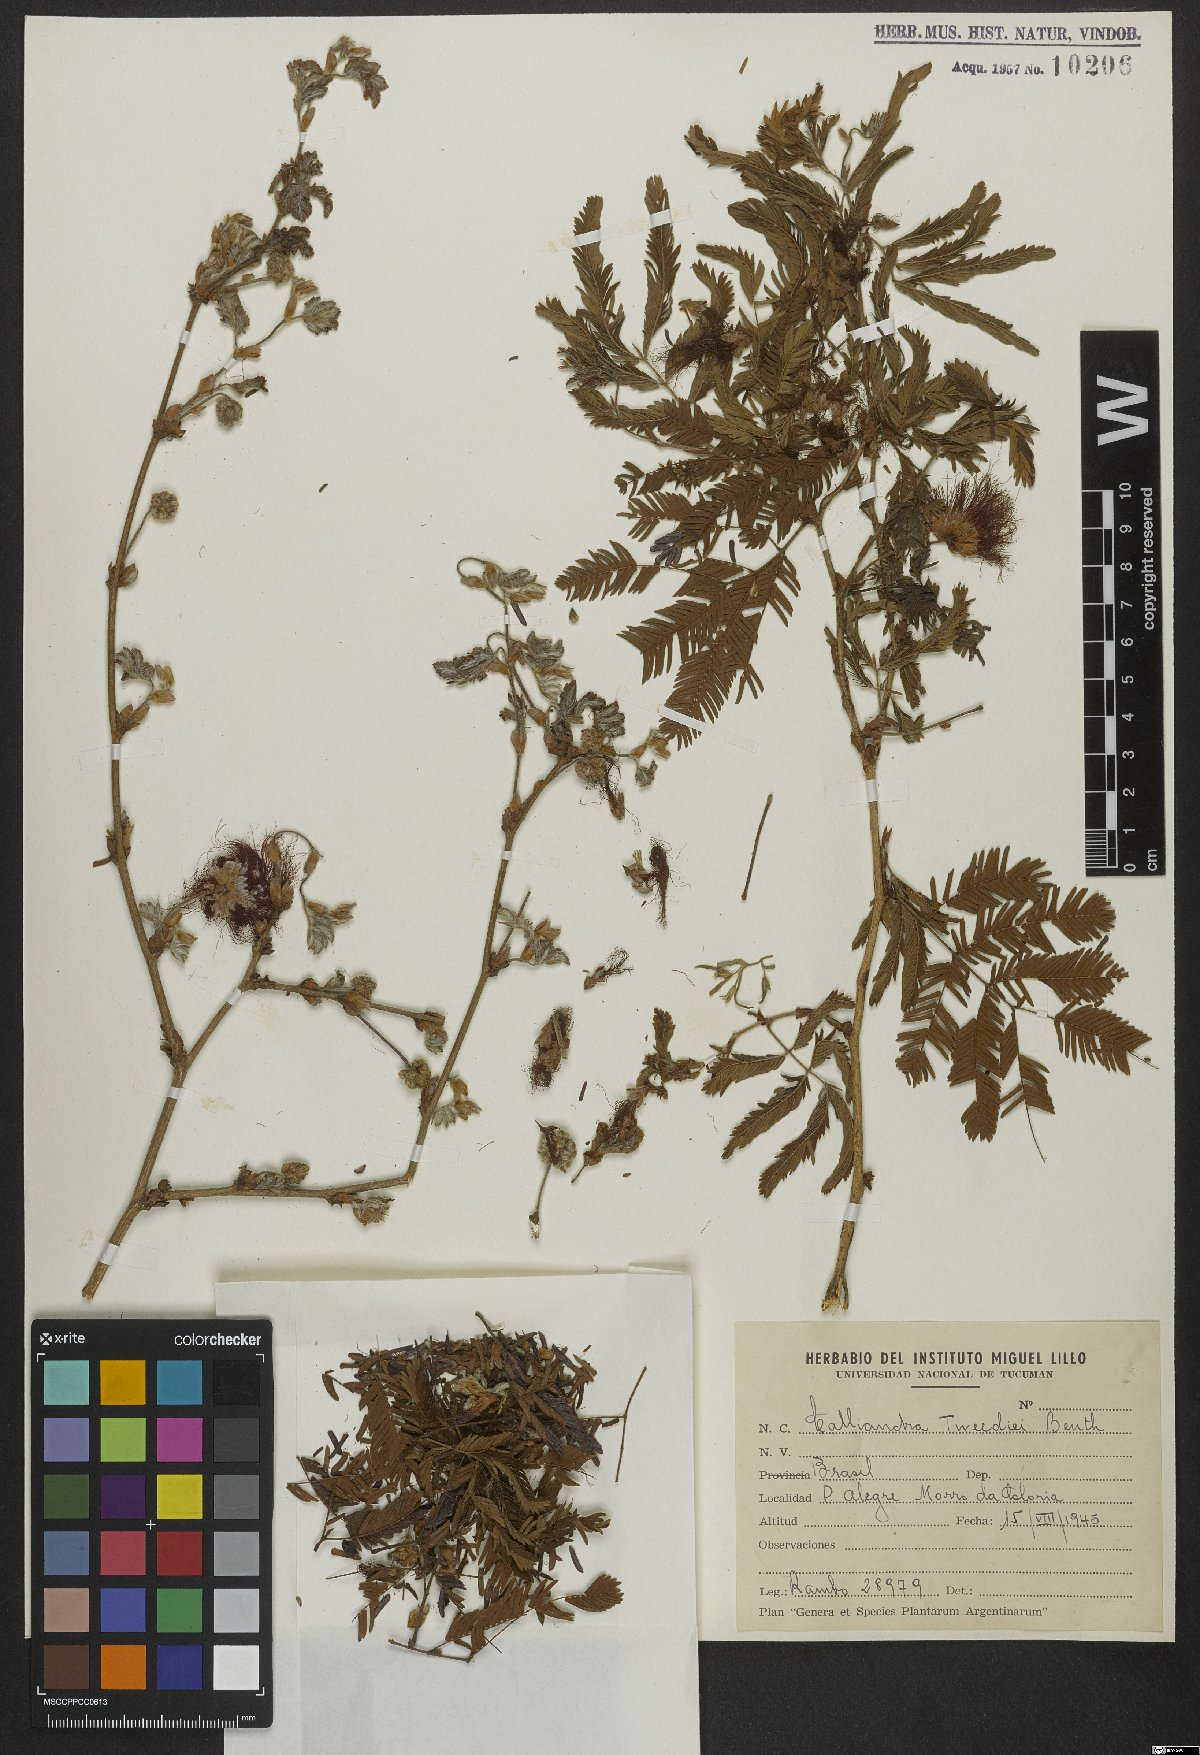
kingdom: Plantae
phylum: Tracheophyta
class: Magnoliopsida
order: Fabales
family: Fabaceae
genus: Calliandra
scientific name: Calliandra tweedii
